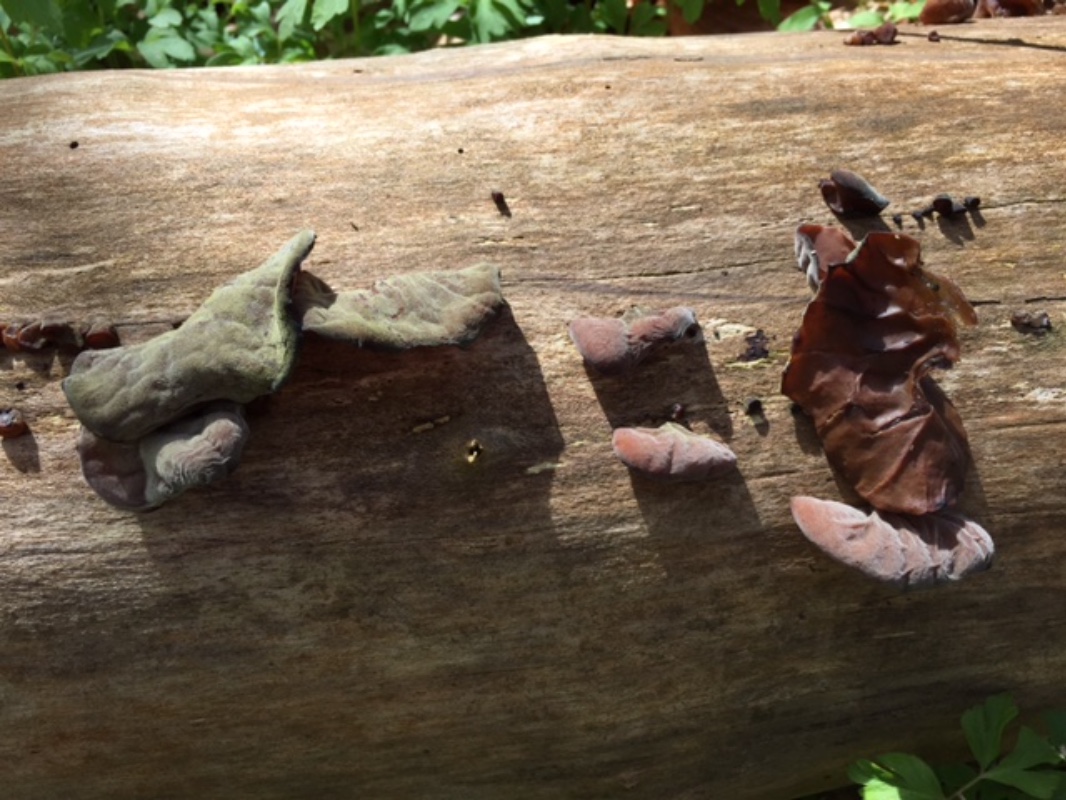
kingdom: Fungi
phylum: Basidiomycota
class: Agaricomycetes
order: Auriculariales
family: Auriculariaceae
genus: Auricularia
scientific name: Auricularia auricula-judae
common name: almindelig judasøre
